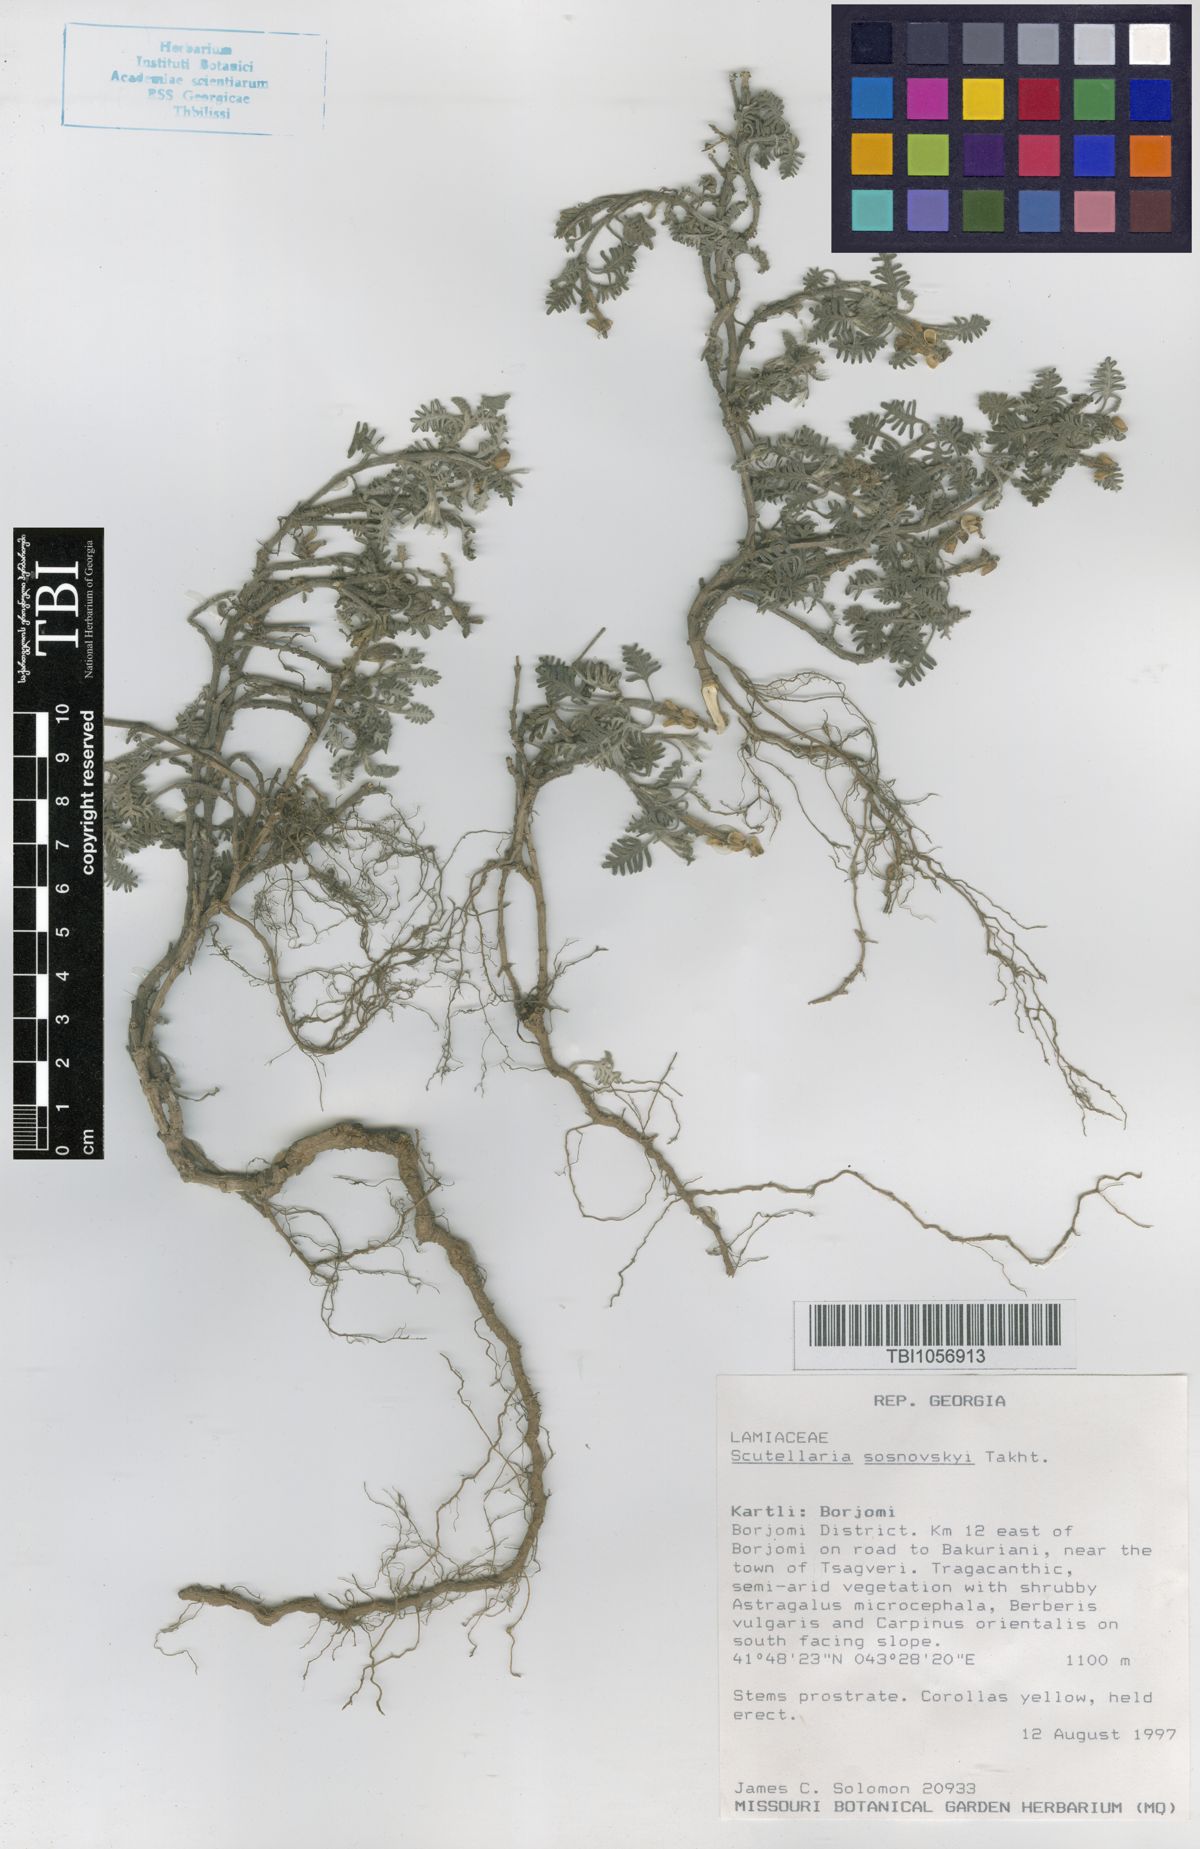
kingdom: Plantae
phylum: Tracheophyta
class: Magnoliopsida
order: Lamiales
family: Lamiaceae
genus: Scutellaria
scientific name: Scutellaria sosnowskyi
